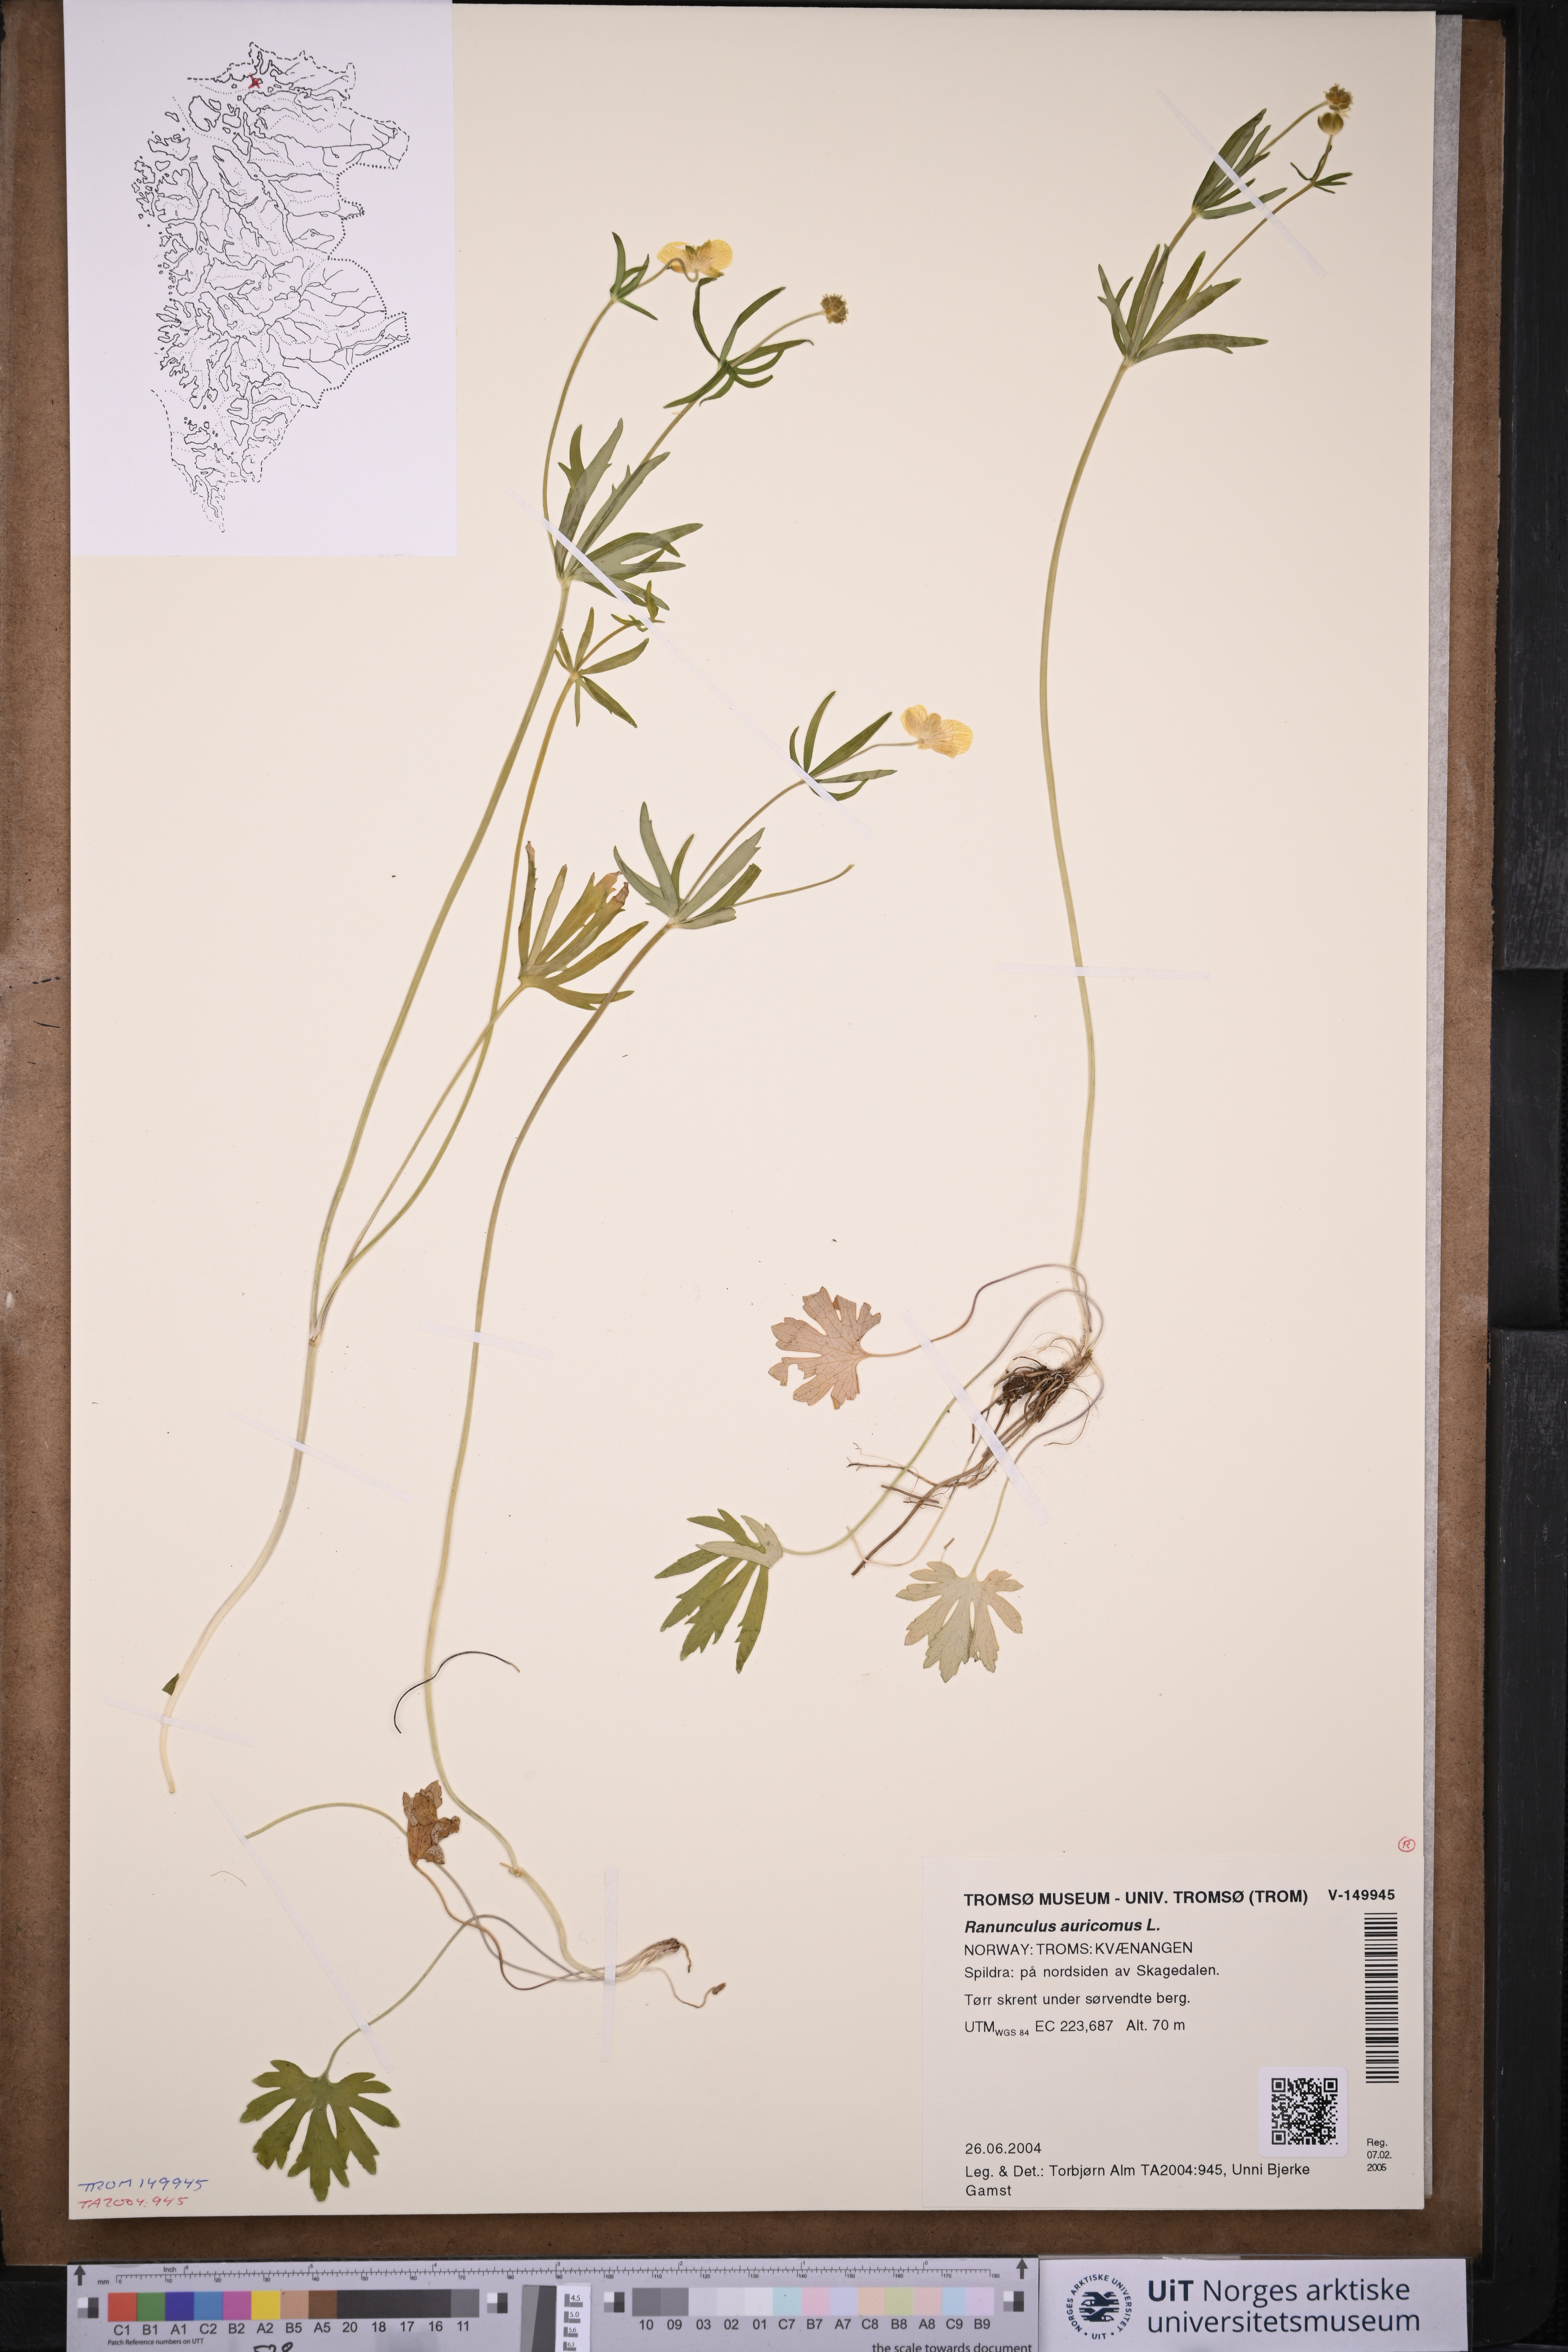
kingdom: Plantae
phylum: Tracheophyta
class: Magnoliopsida
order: Ranunculales
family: Ranunculaceae
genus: Ranunculus
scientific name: Ranunculus auricomus
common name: Goldilocks buttercup
